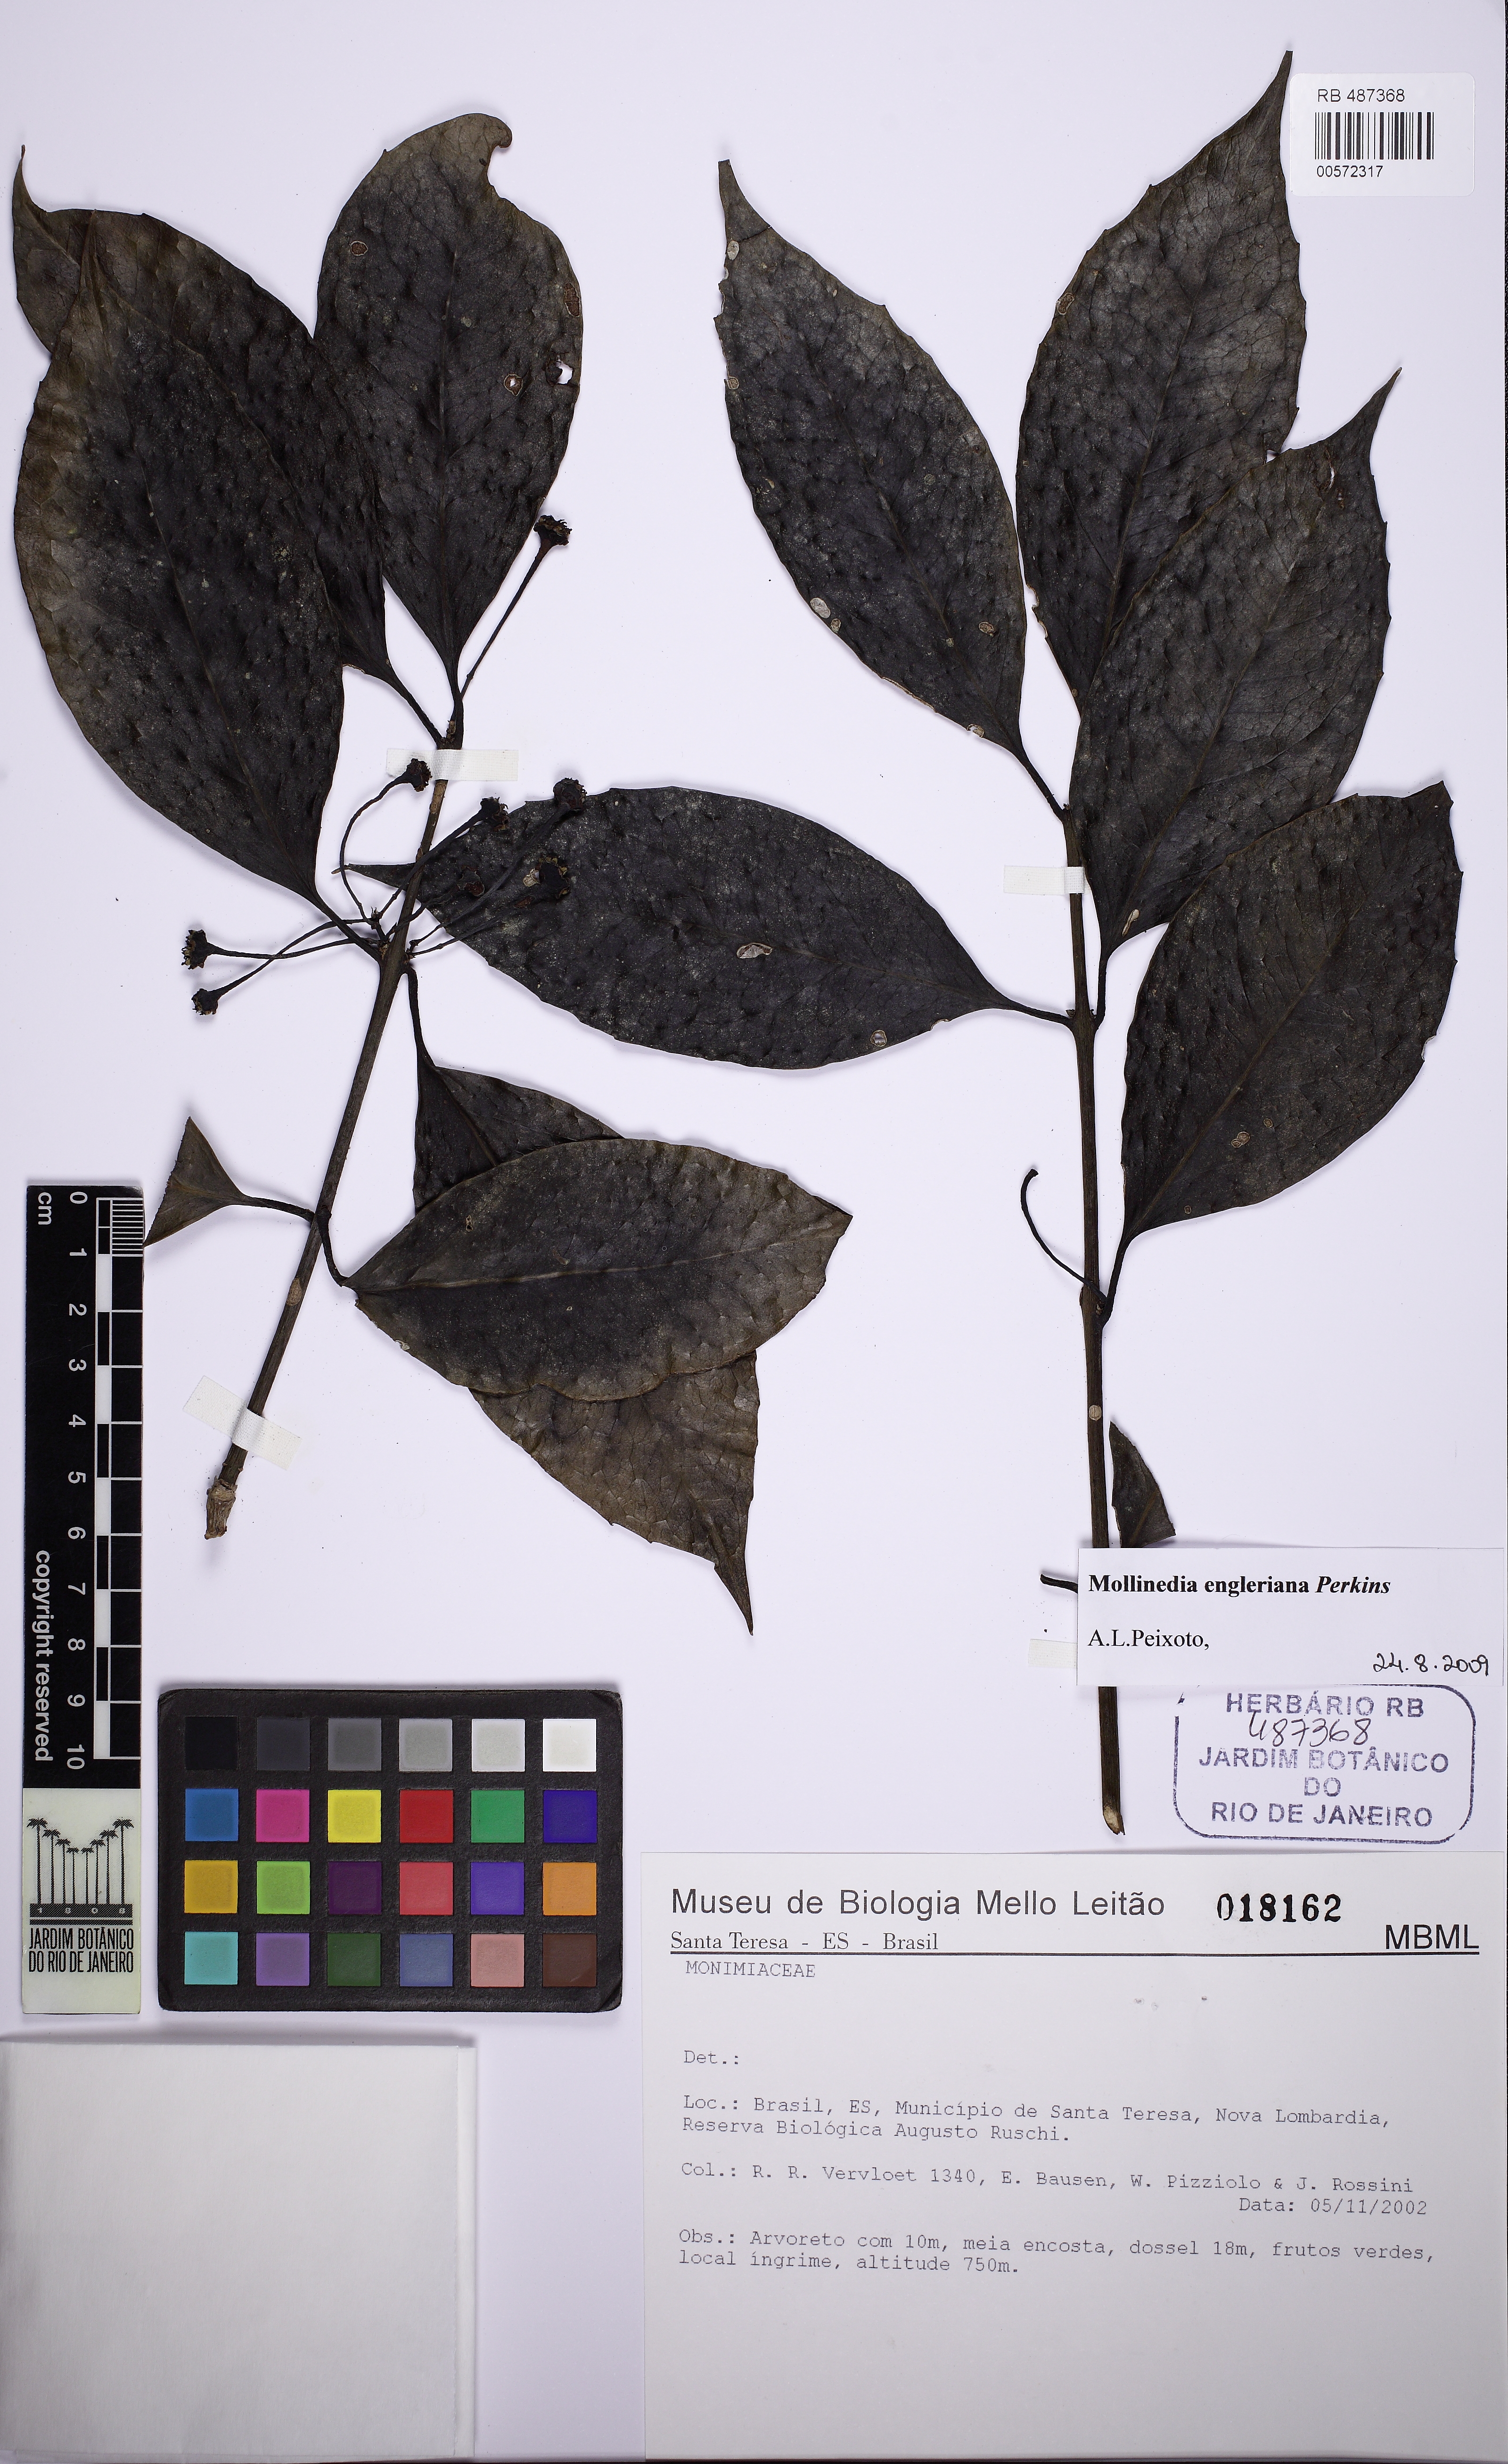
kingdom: Plantae
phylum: Tracheophyta
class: Magnoliopsida
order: Laurales
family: Monimiaceae
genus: Mollinedia
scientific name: Mollinedia engleriana
